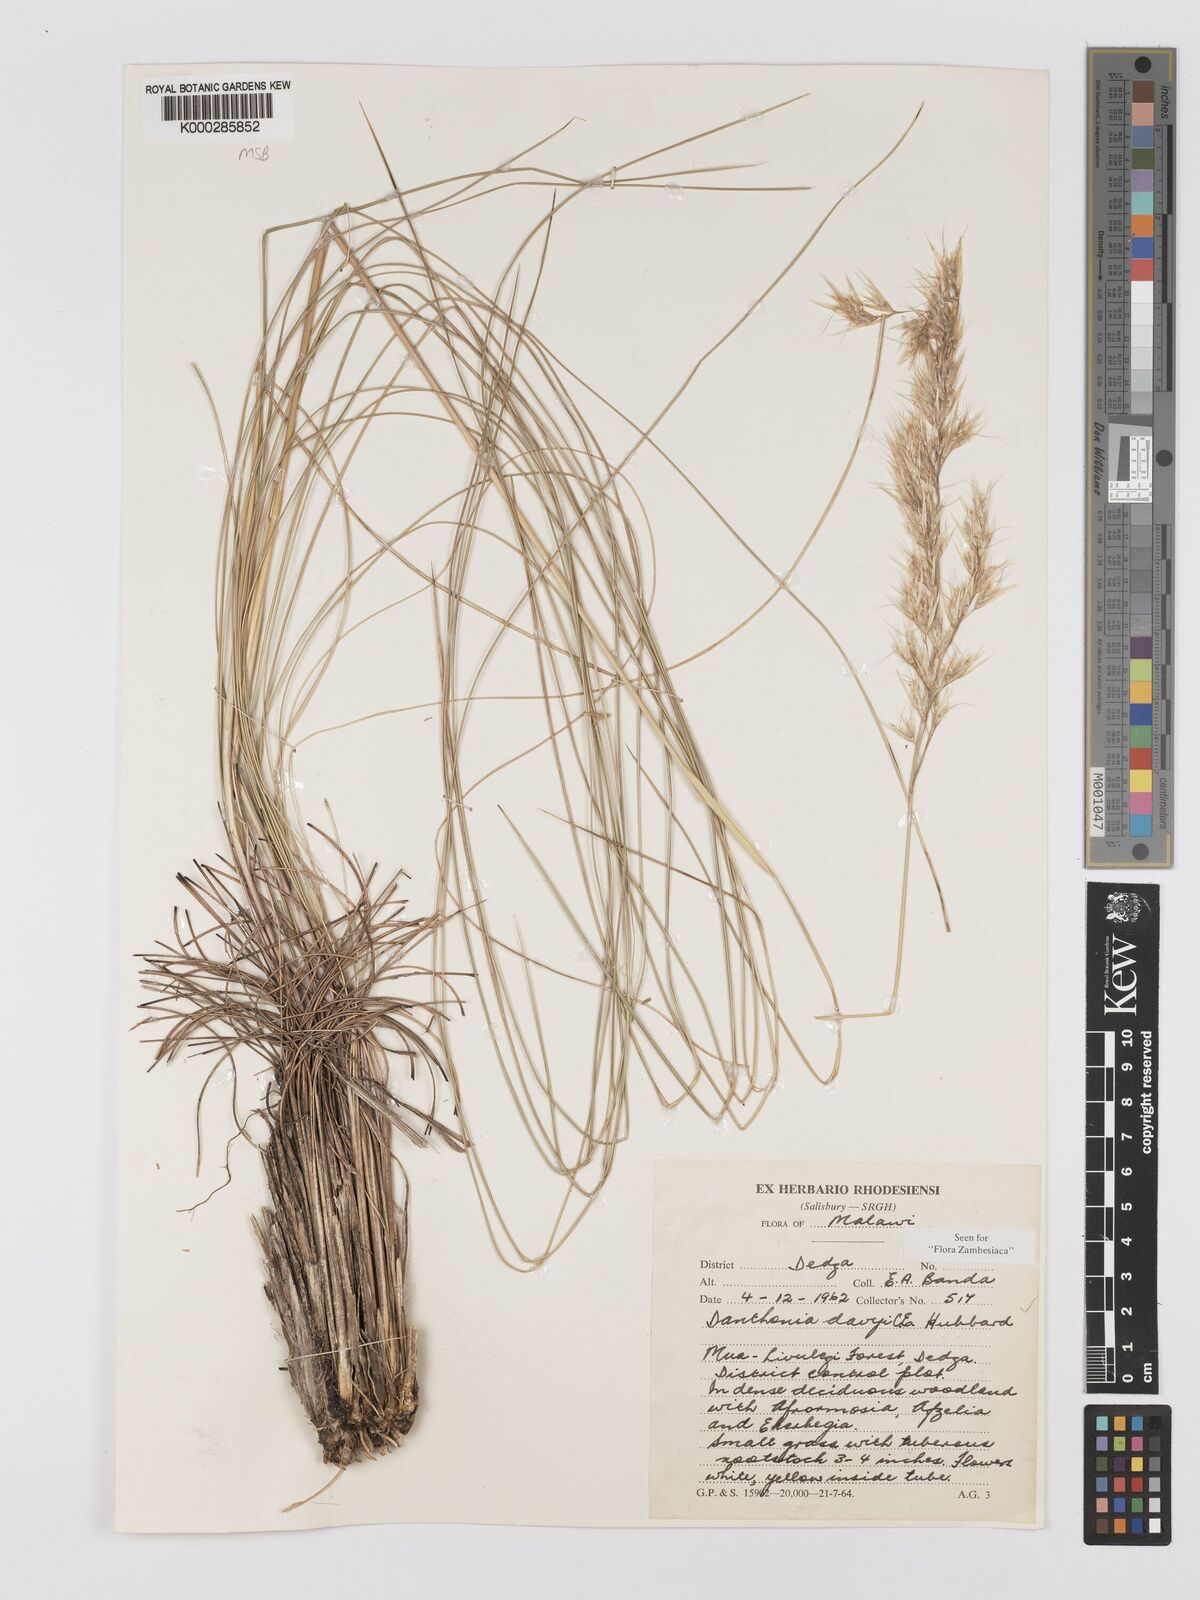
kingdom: Plantae
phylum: Tracheophyta
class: Liliopsida
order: Poales
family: Poaceae
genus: Merxmuellera
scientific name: Merxmuellera davyi
